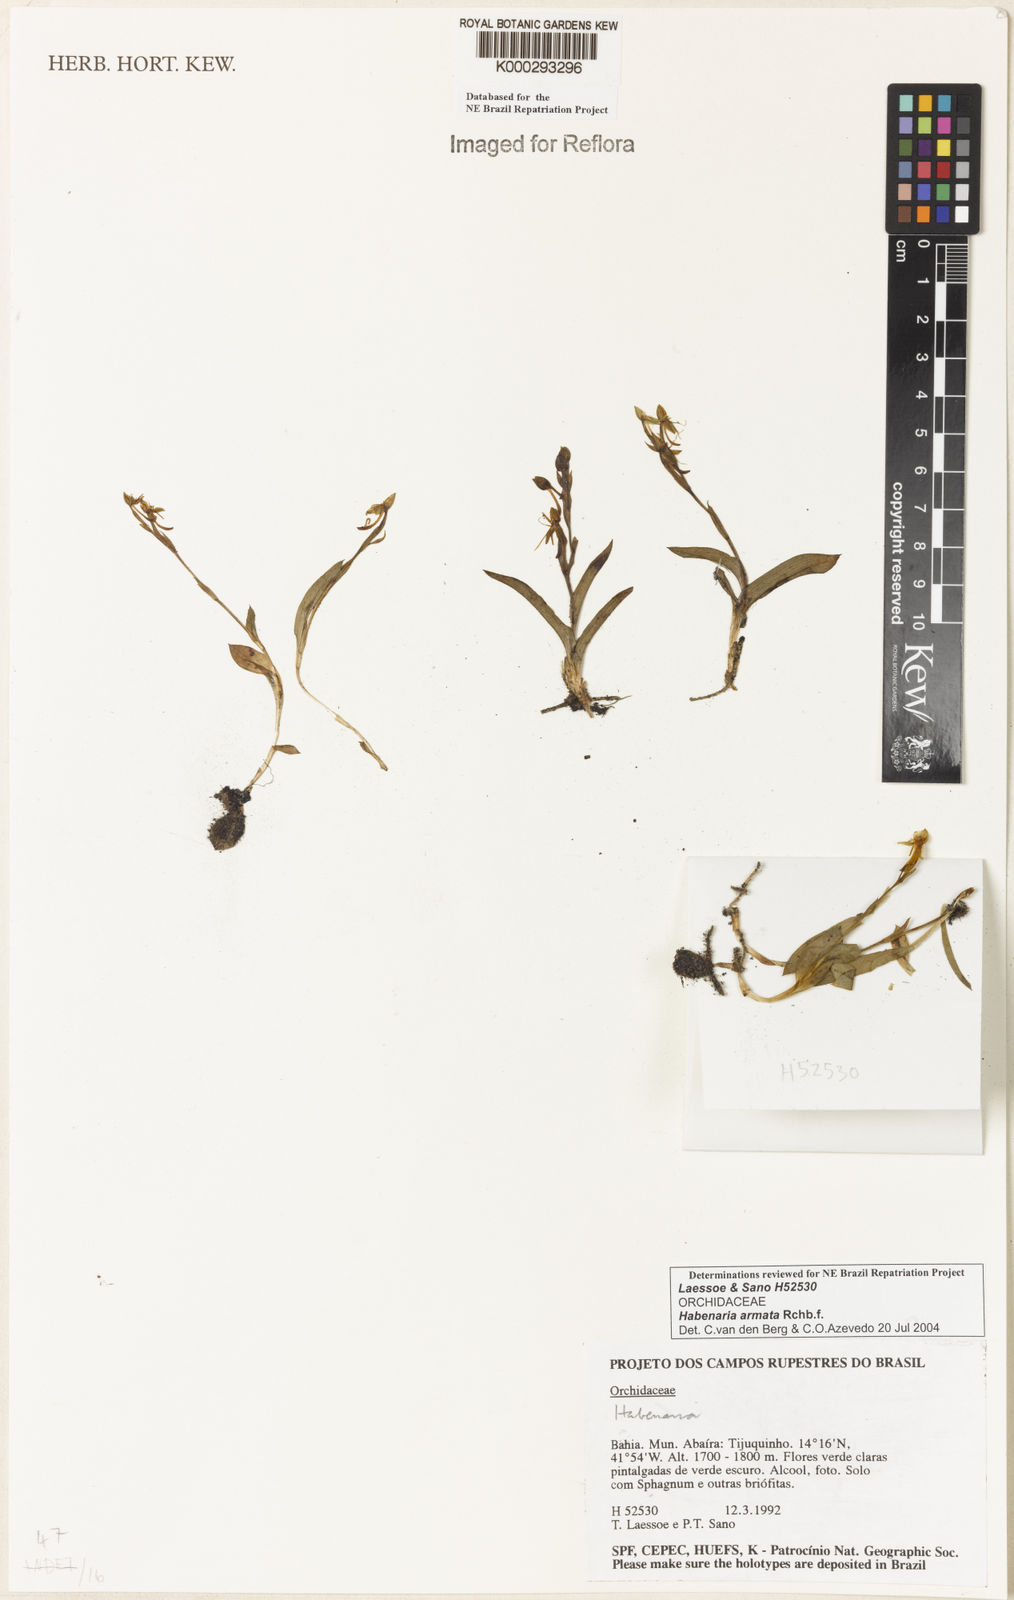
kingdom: Plantae
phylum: Tracheophyta
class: Liliopsida
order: Asparagales
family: Orchidaceae
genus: Habenaria
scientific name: Habenaria armata
